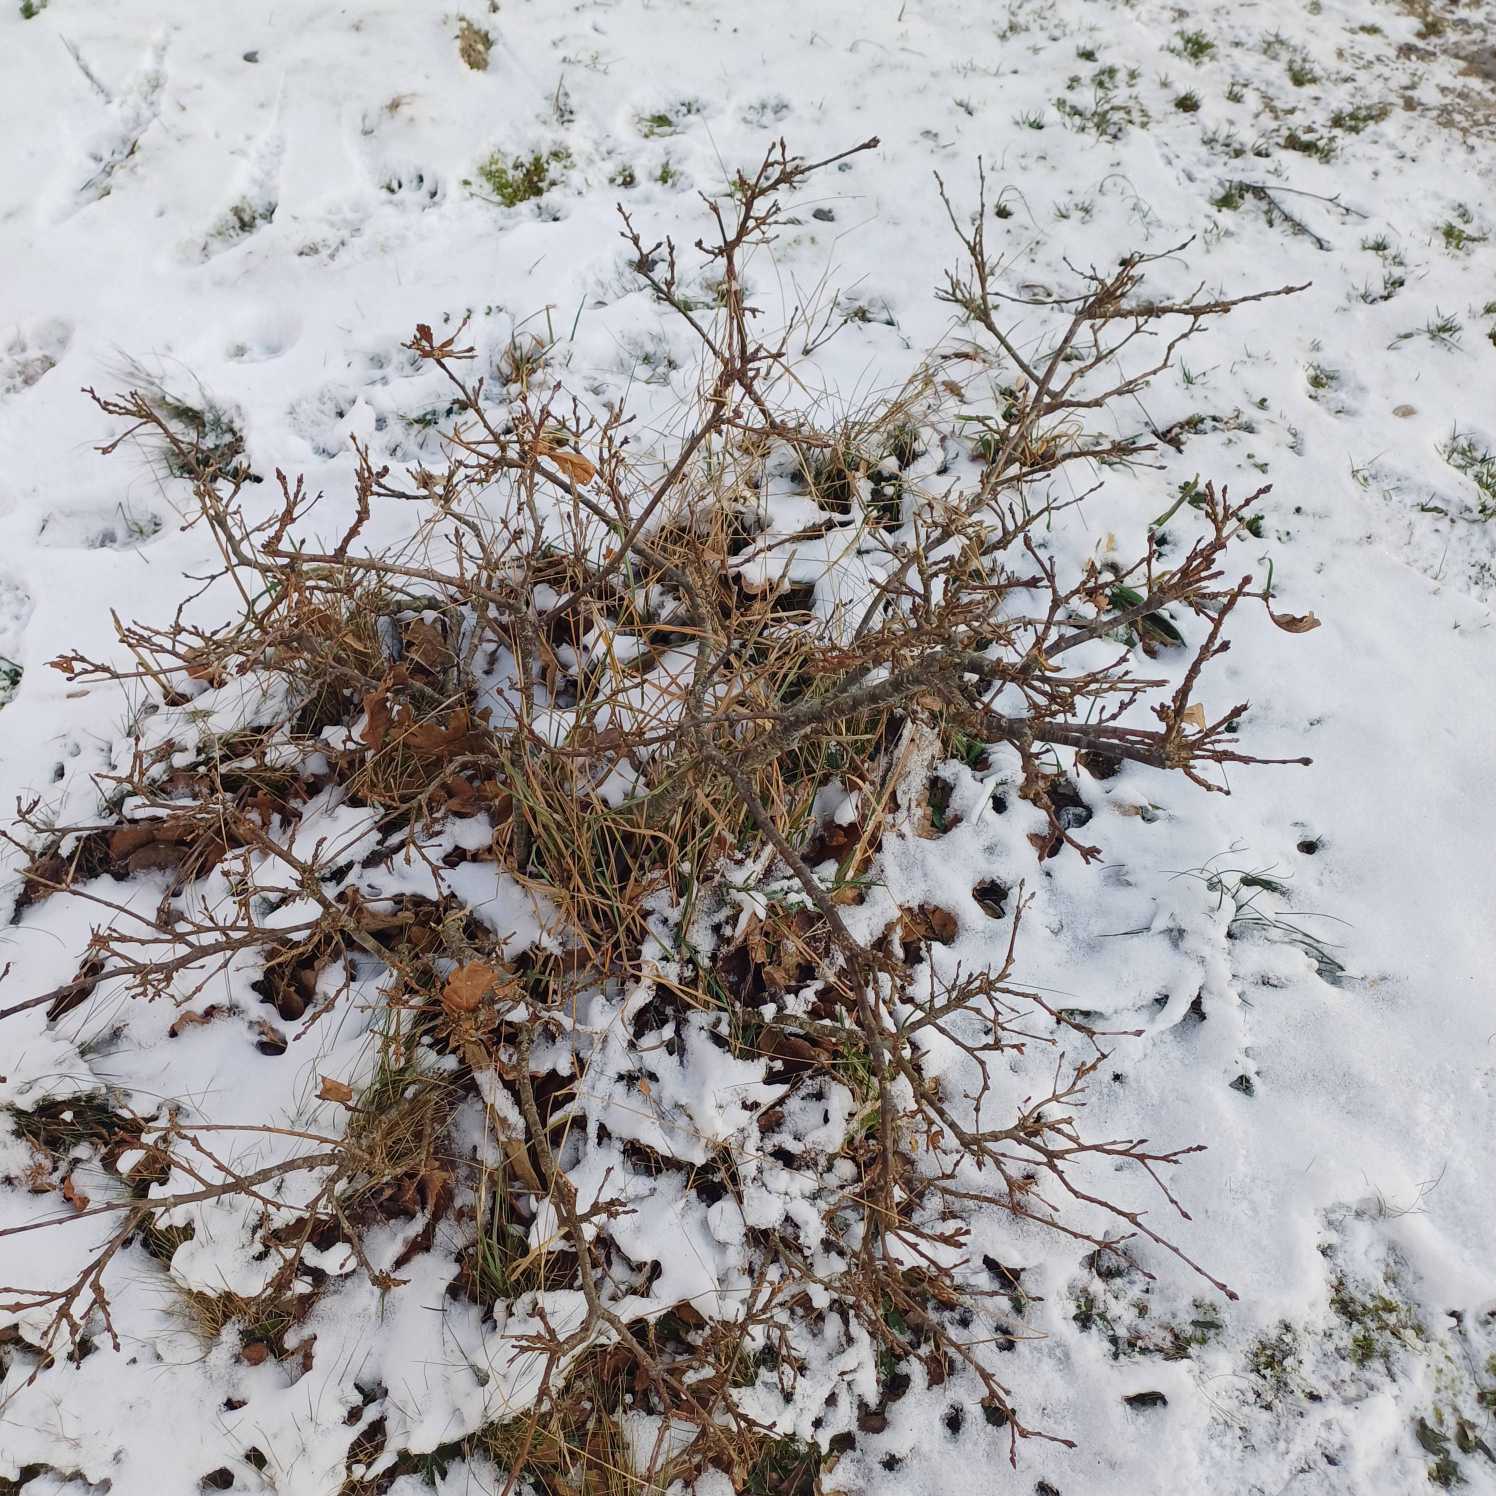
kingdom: Plantae
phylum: Tracheophyta
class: Magnoliopsida
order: Fagales
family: Fagaceae
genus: Quercus
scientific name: Quercus robur
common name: Stilk-eg/almindelig eg
